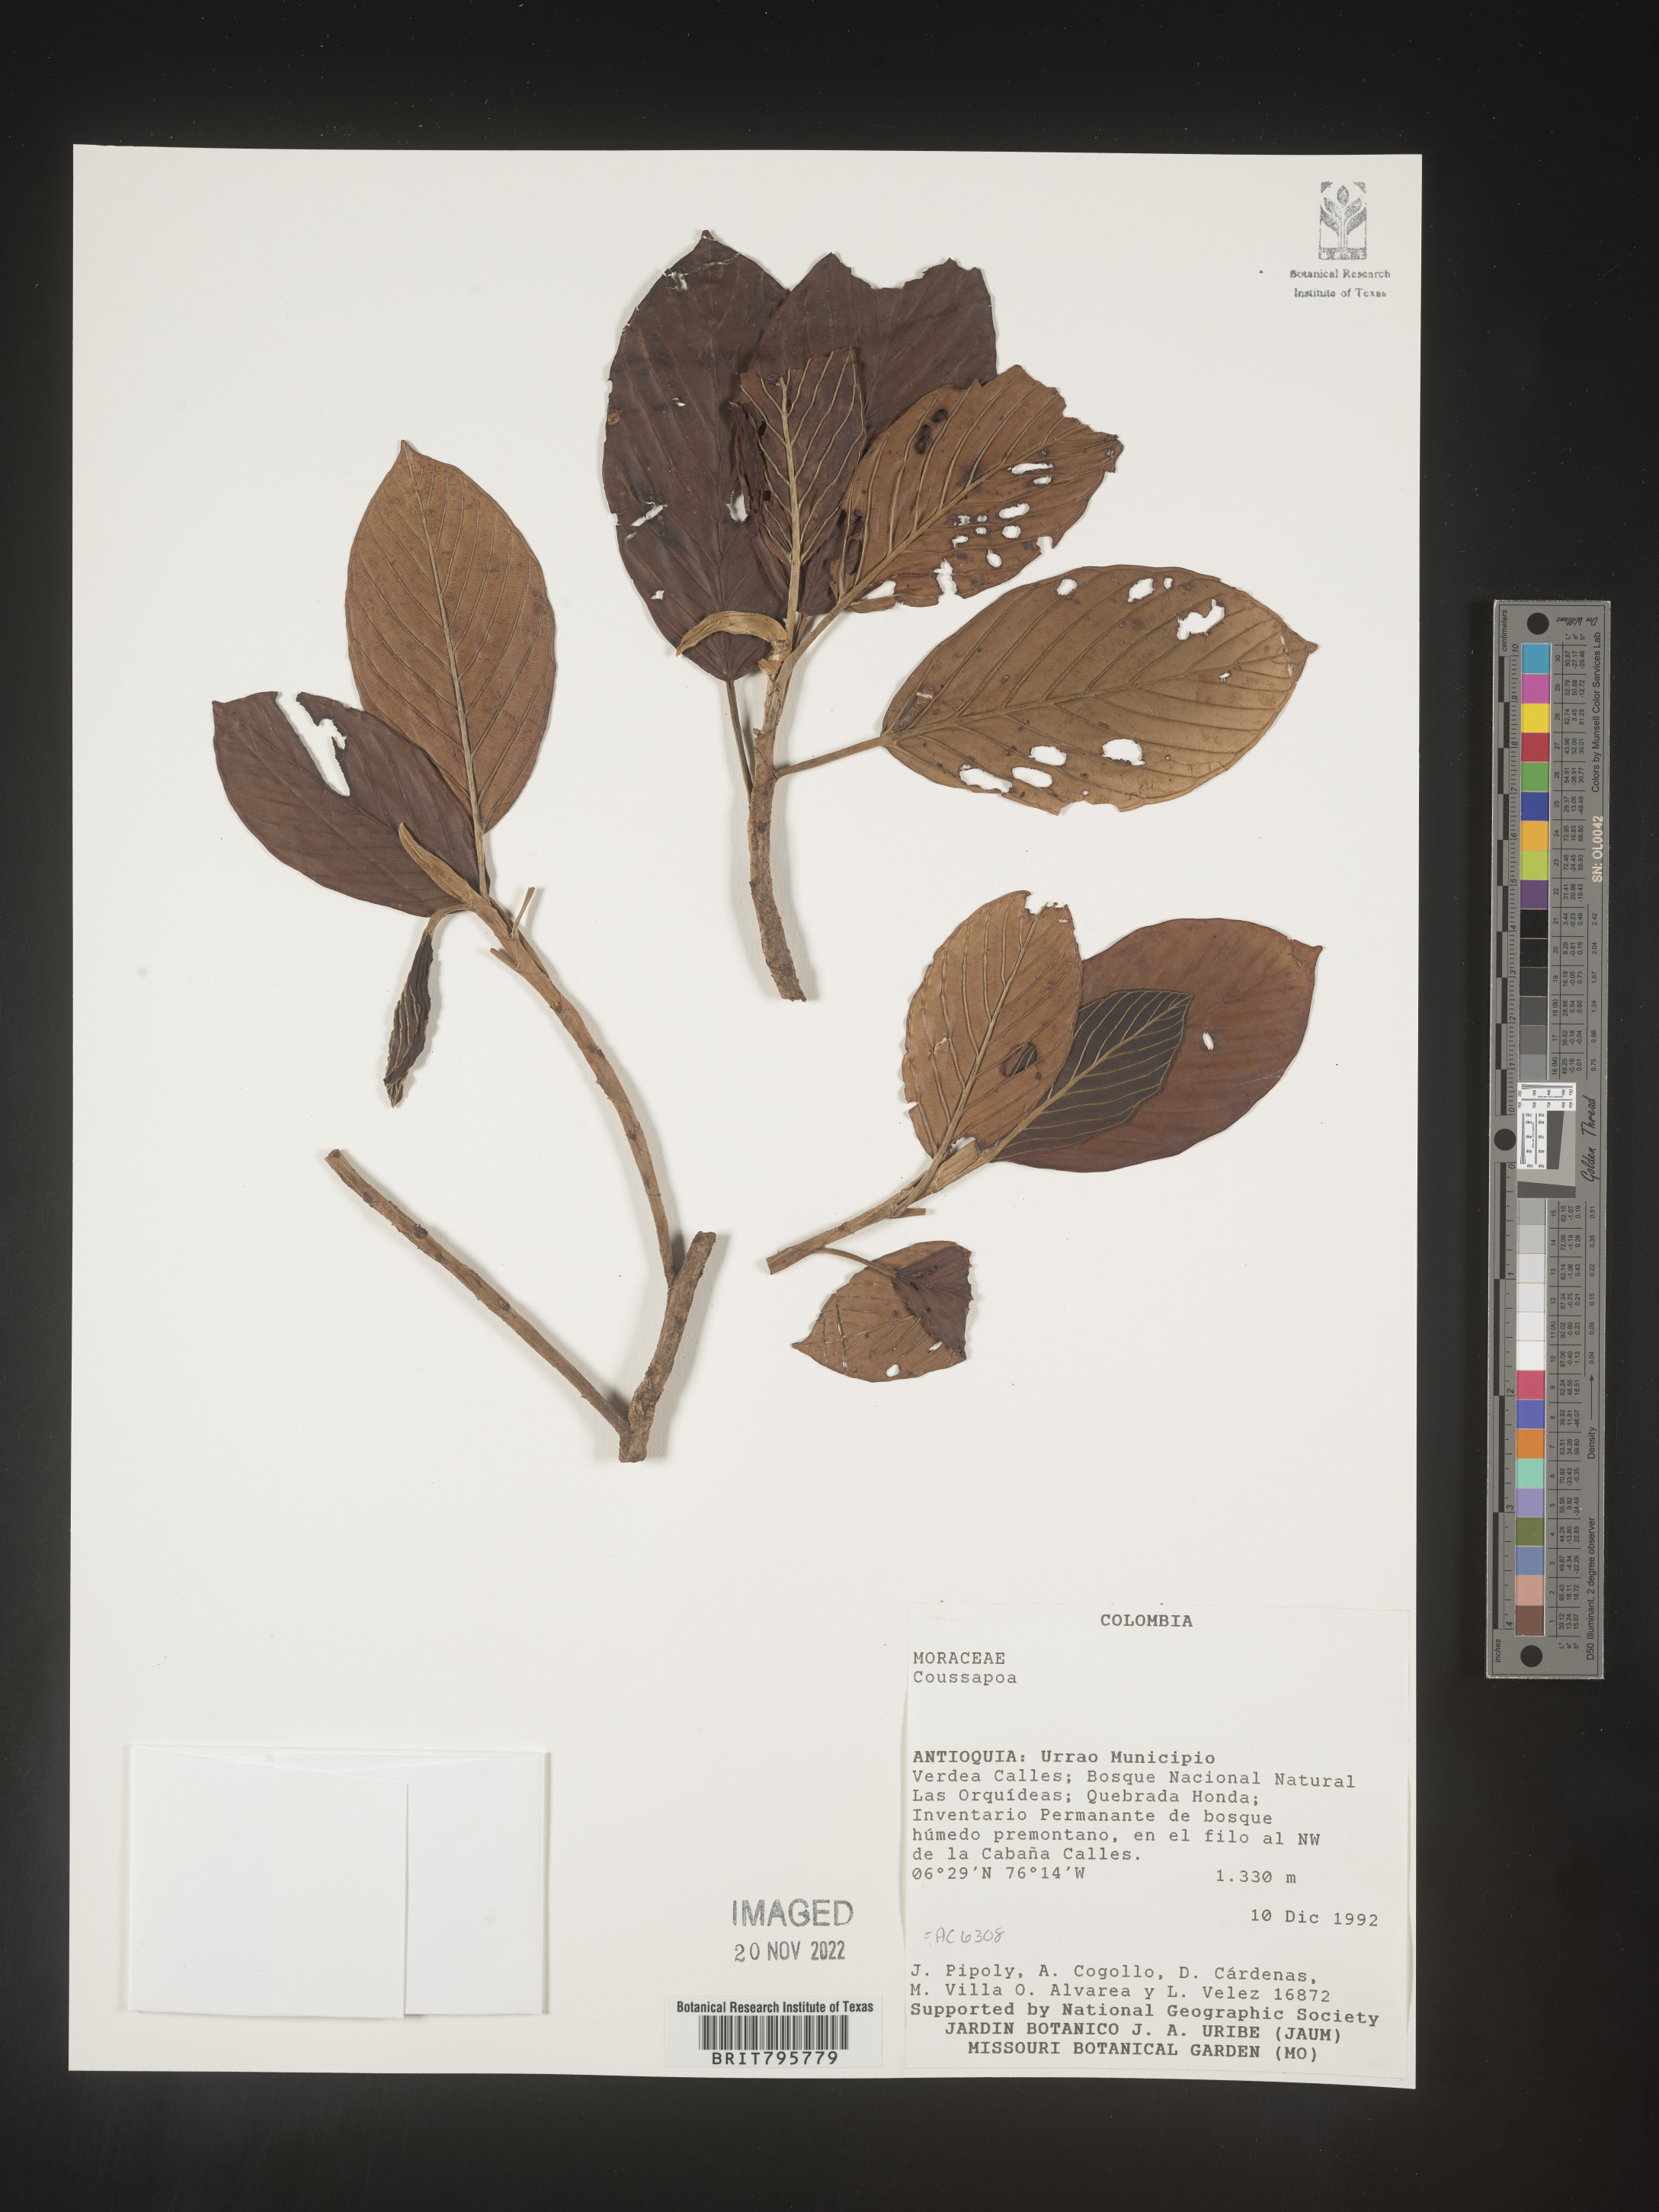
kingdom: Plantae
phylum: Tracheophyta
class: Magnoliopsida
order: Rosales
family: Urticaceae
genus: Coussapoa
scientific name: Coussapoa
